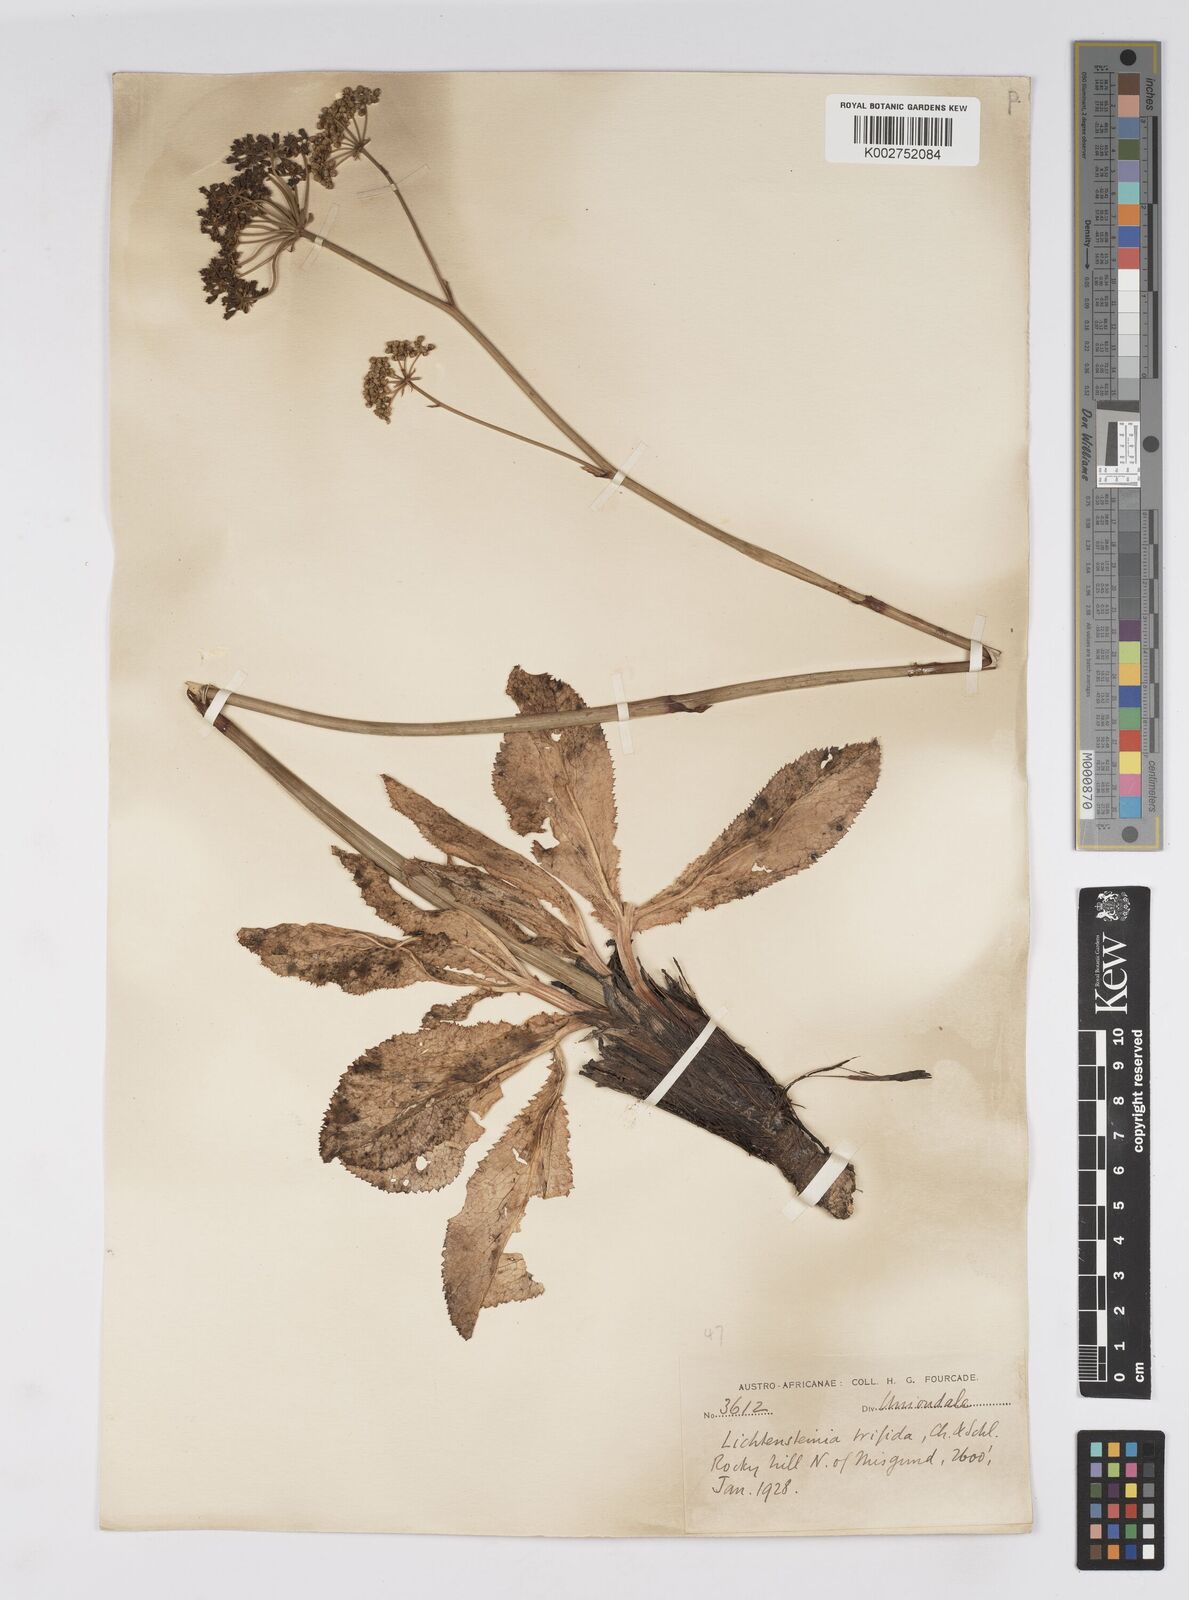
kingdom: Plantae
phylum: Tracheophyta
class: Magnoliopsida
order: Apiales
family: Apiaceae
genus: Lichtensteinia
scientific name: Lichtensteinia trifida
